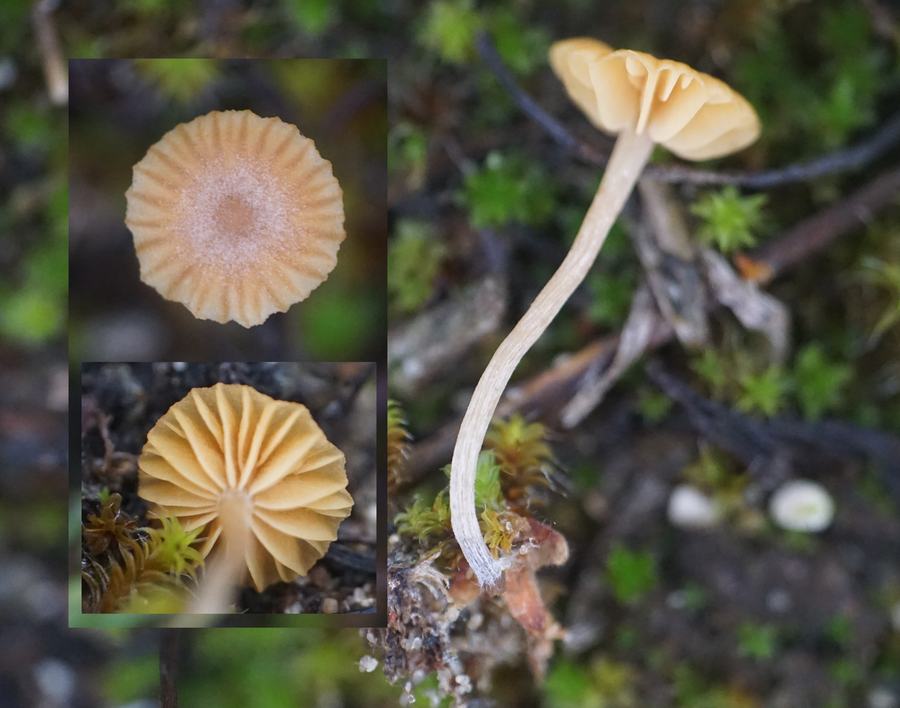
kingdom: Fungi
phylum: Basidiomycota
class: Agaricomycetes
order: Agaricales
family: Hymenogastraceae
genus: Galerina
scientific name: Galerina graminea
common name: plæne-hjelmhat
